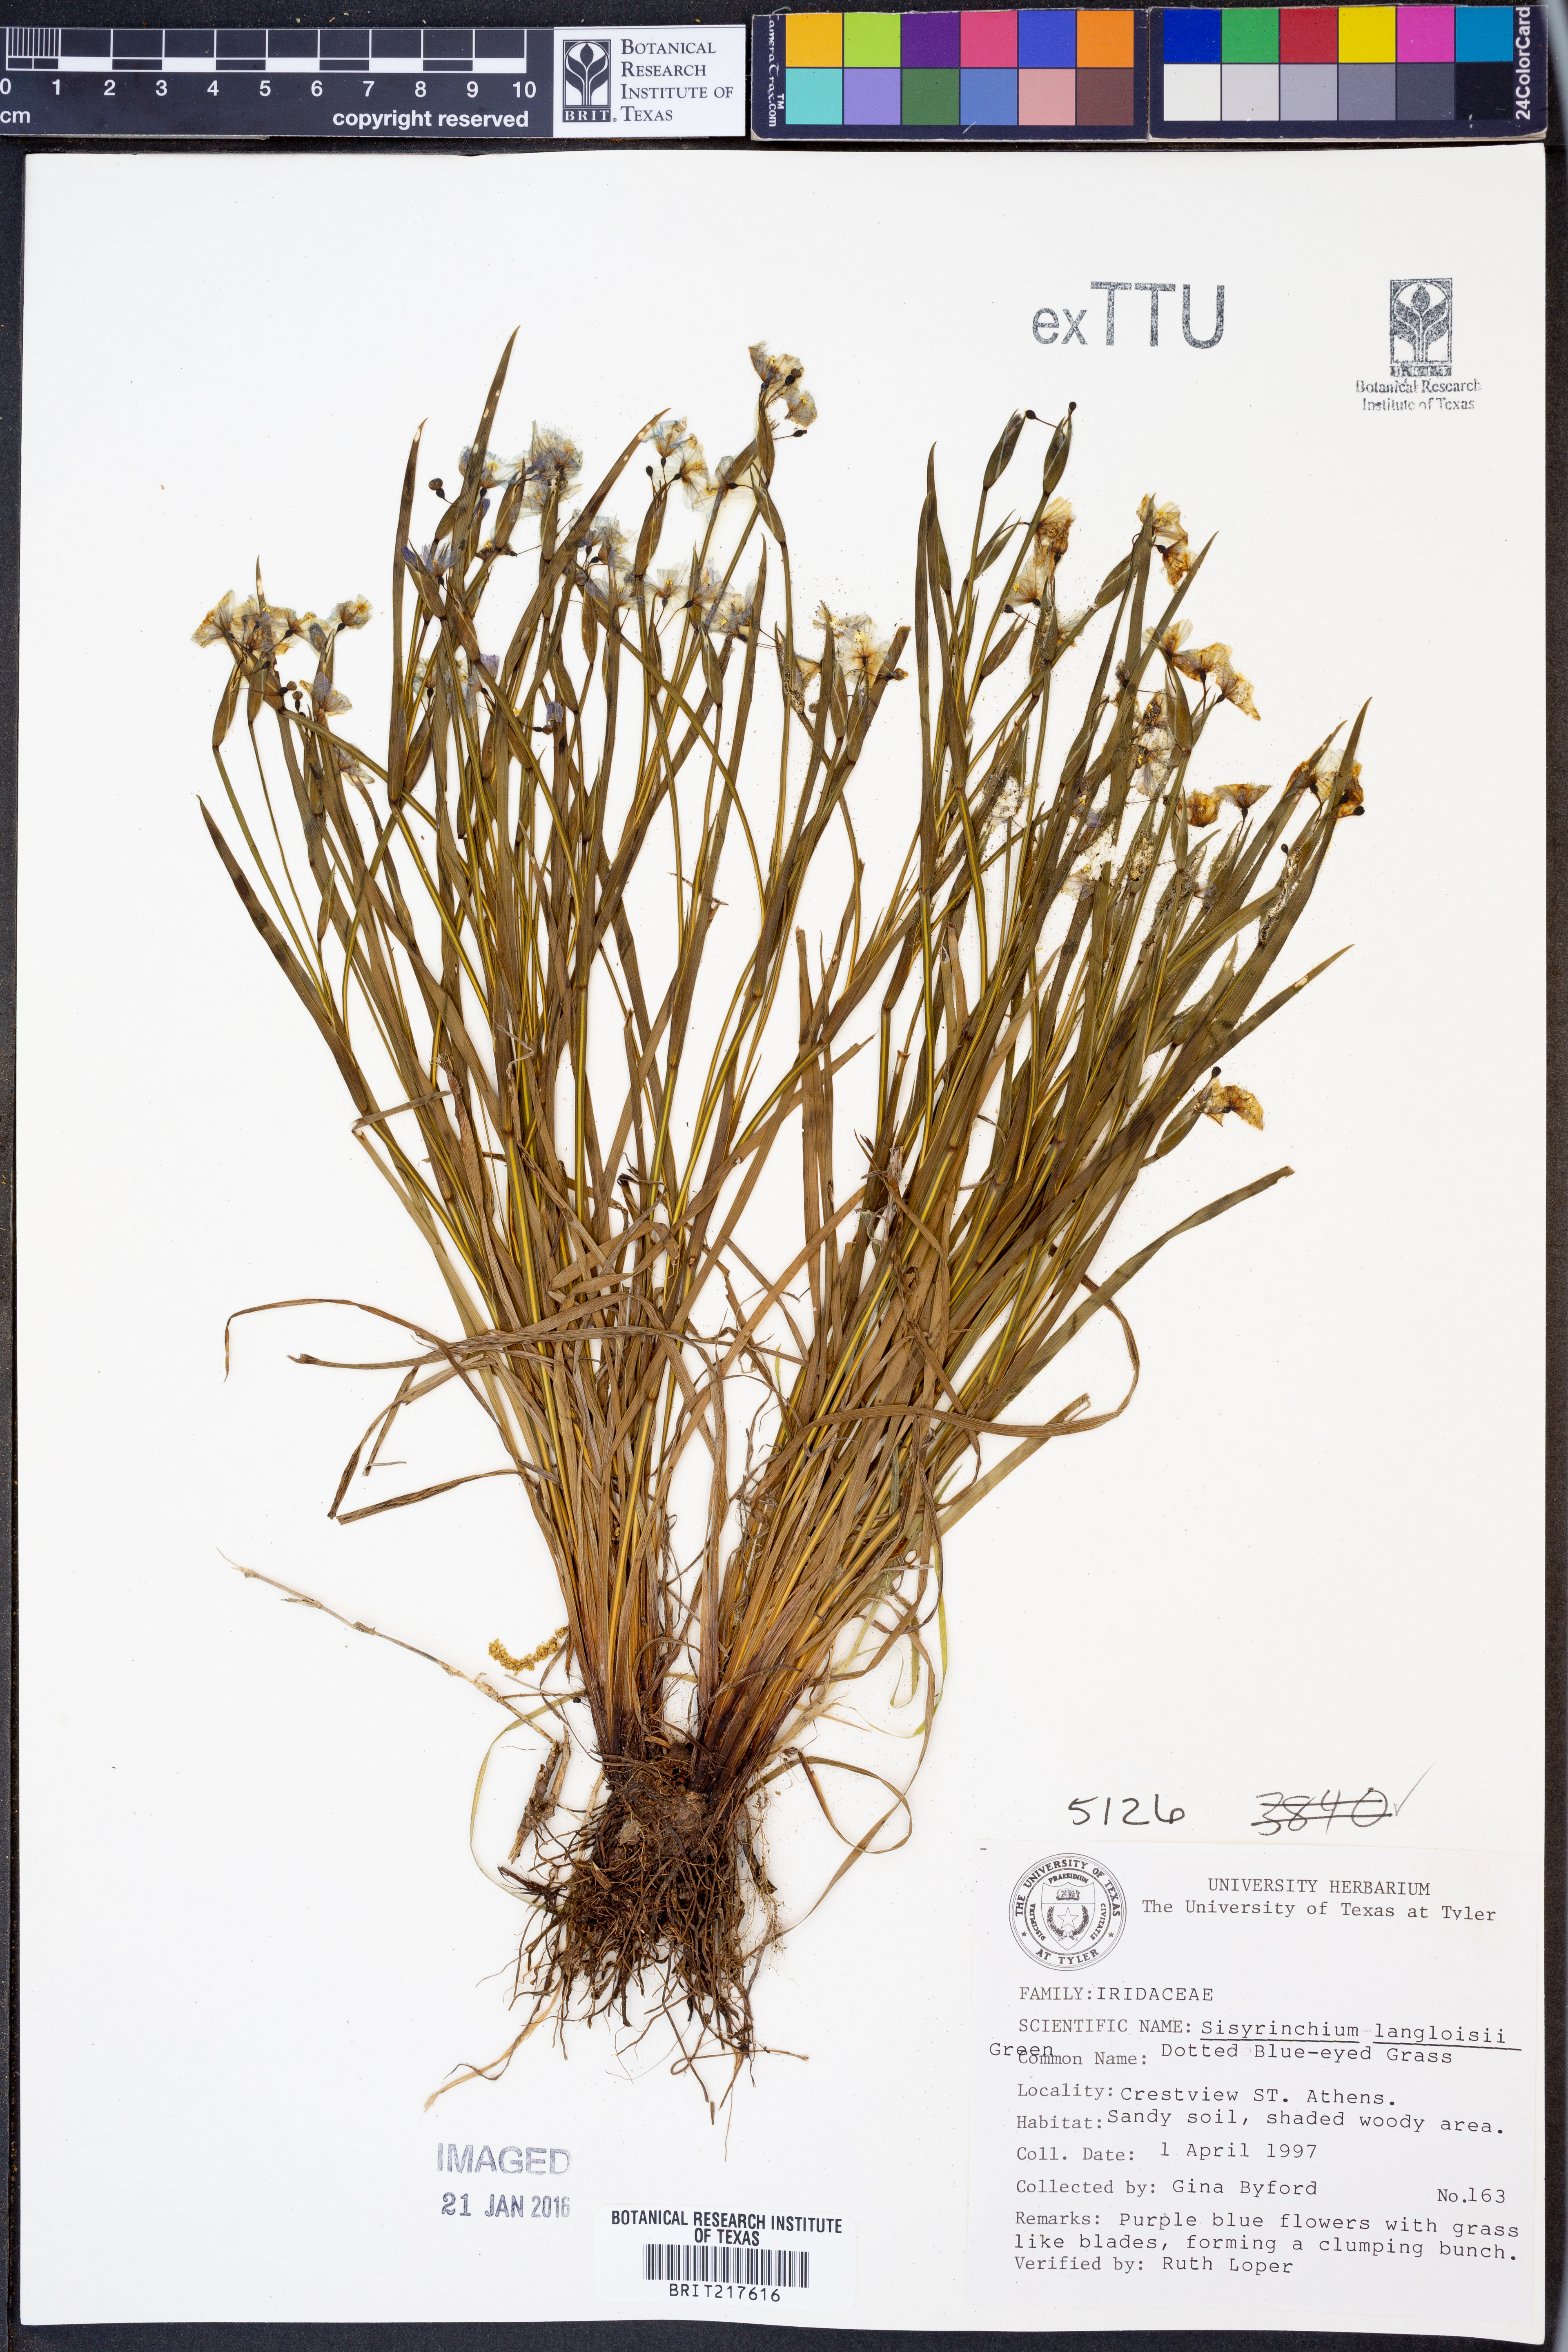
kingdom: Plantae
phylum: Tracheophyta
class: Liliopsida
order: Asparagales
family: Iridaceae
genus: Sisyrinchium
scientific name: Sisyrinchium langloisii
